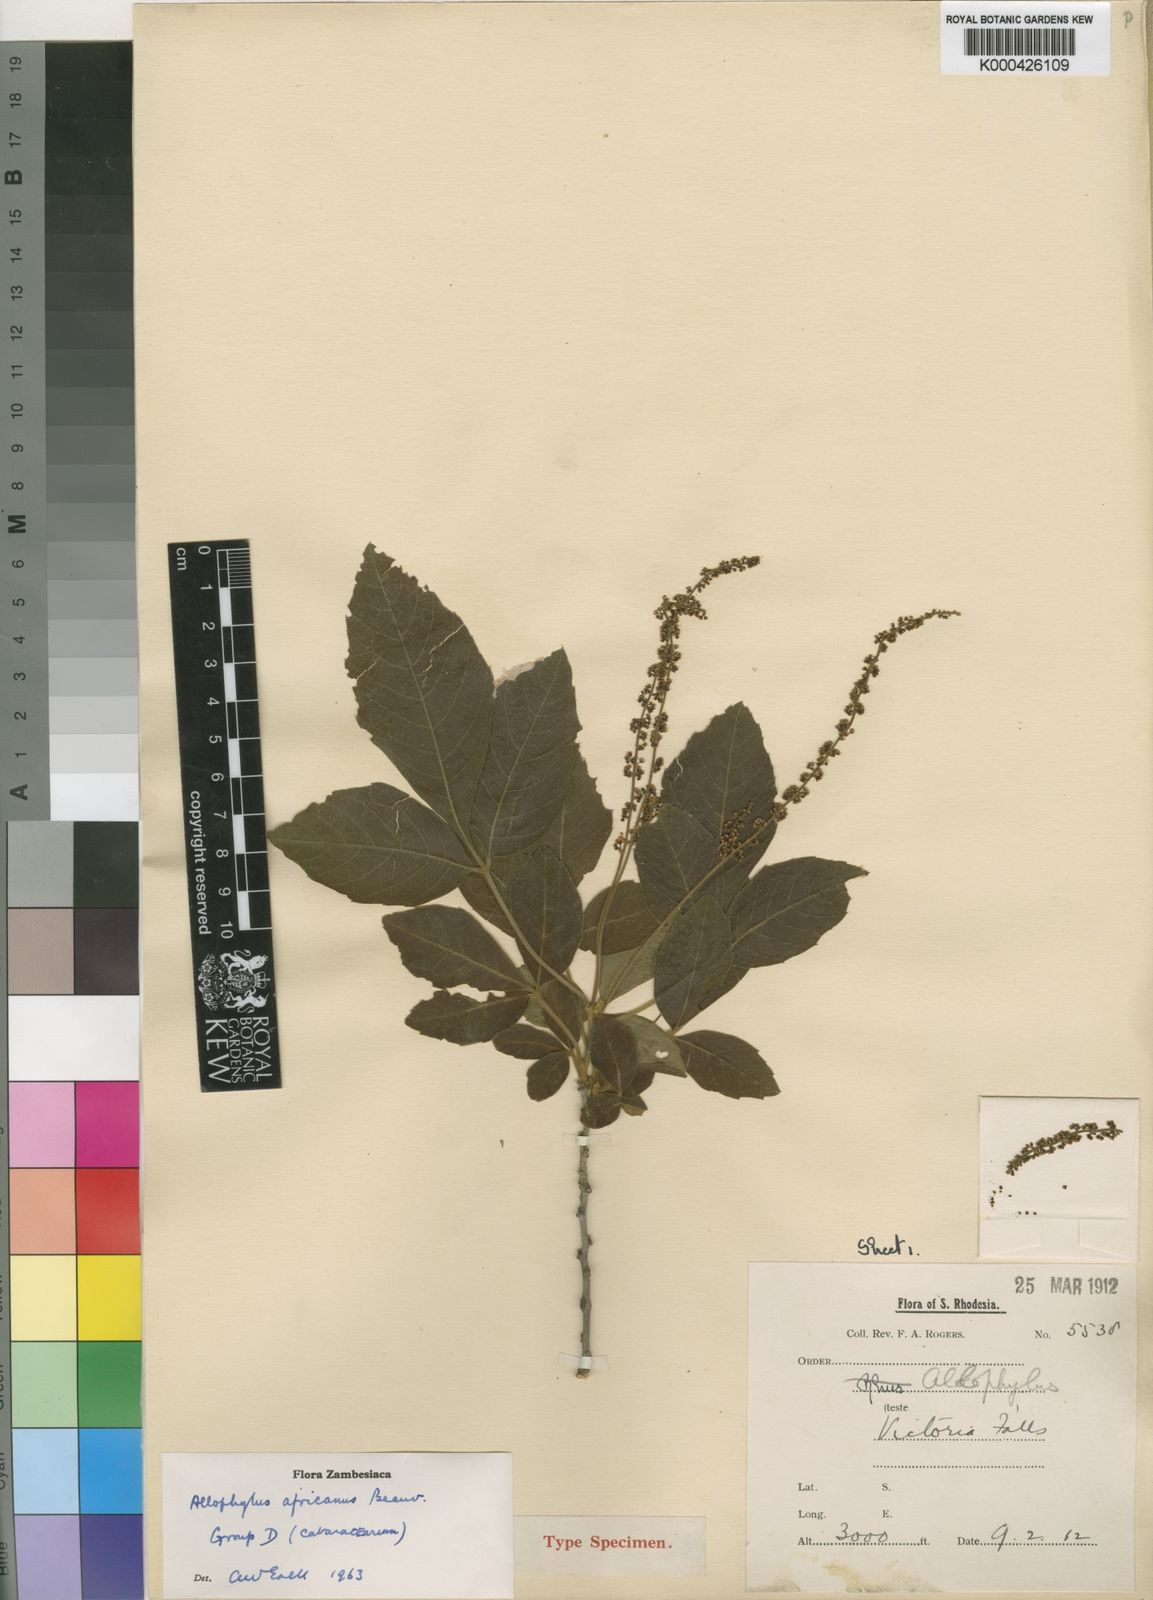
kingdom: Plantae
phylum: Tracheophyta
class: Magnoliopsida
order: Sapindales
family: Sapindaceae
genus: Allophylus
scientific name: Allophylus africanus
